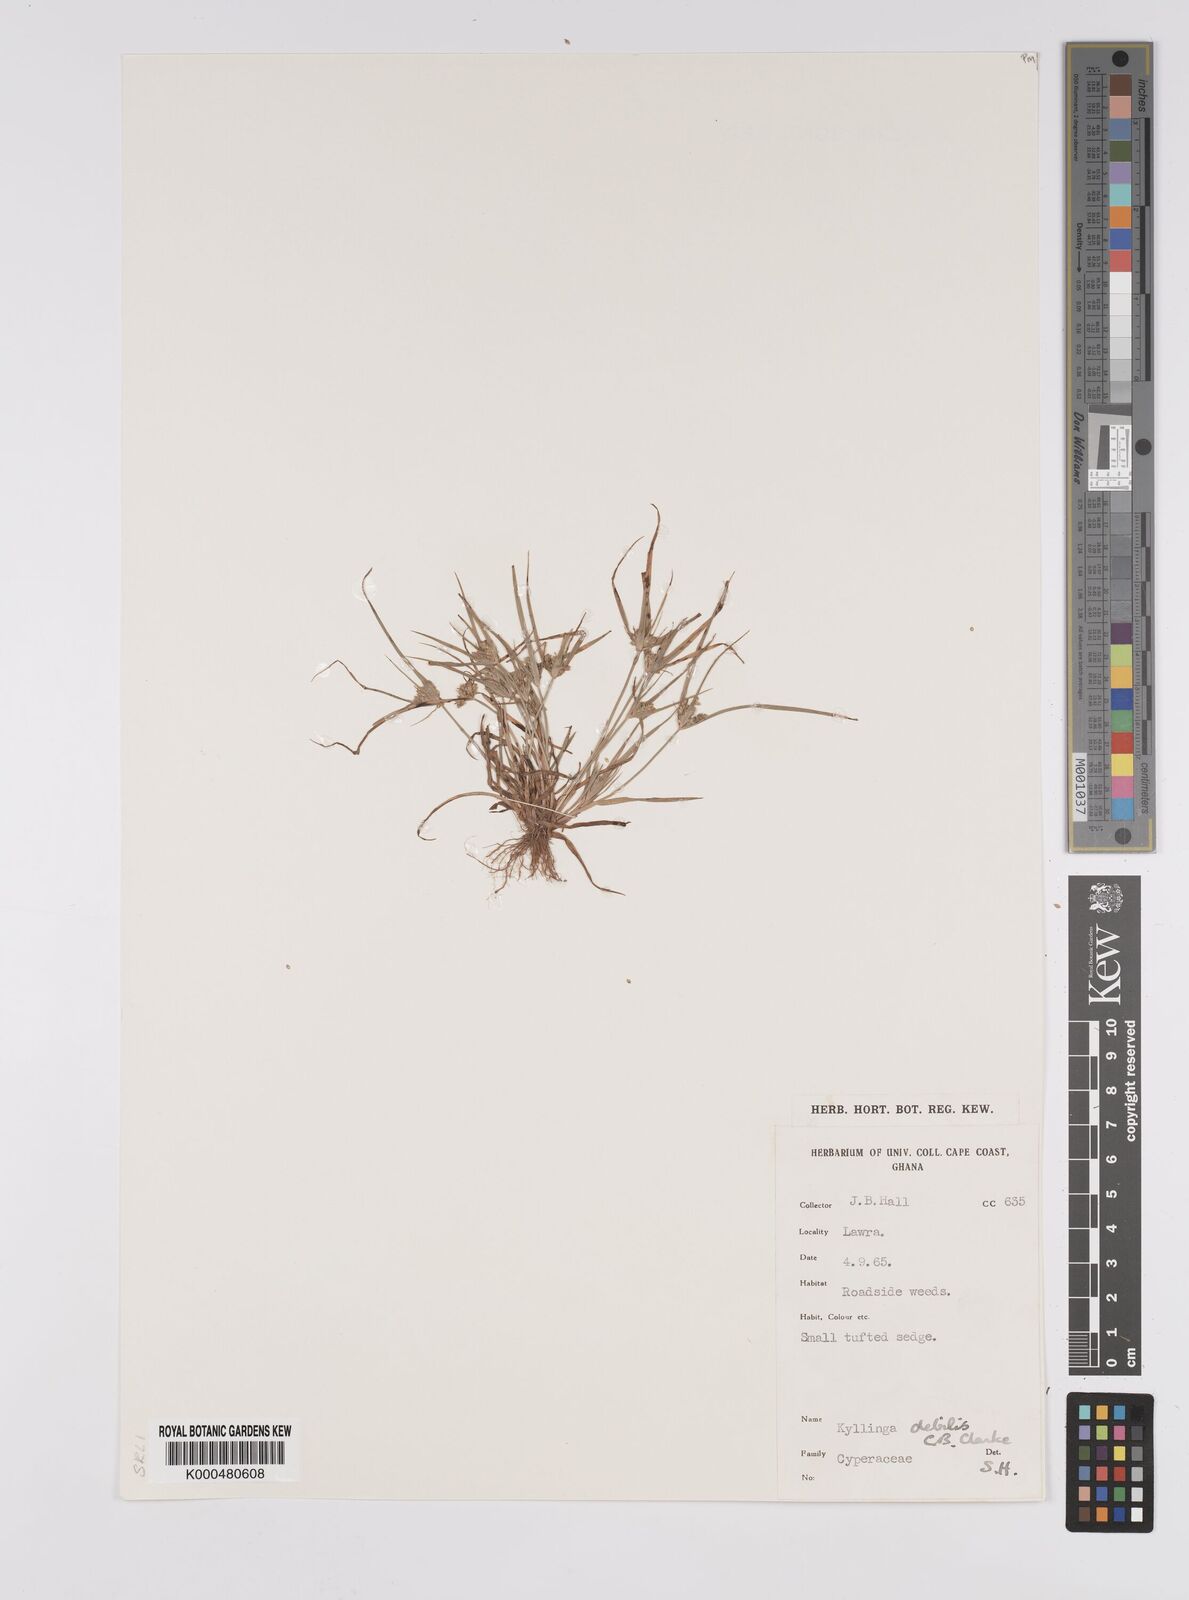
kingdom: Plantae
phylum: Tracheophyta
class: Liliopsida
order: Poales
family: Cyperaceae
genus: Cyperus
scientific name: Cyperus leptorhachis
